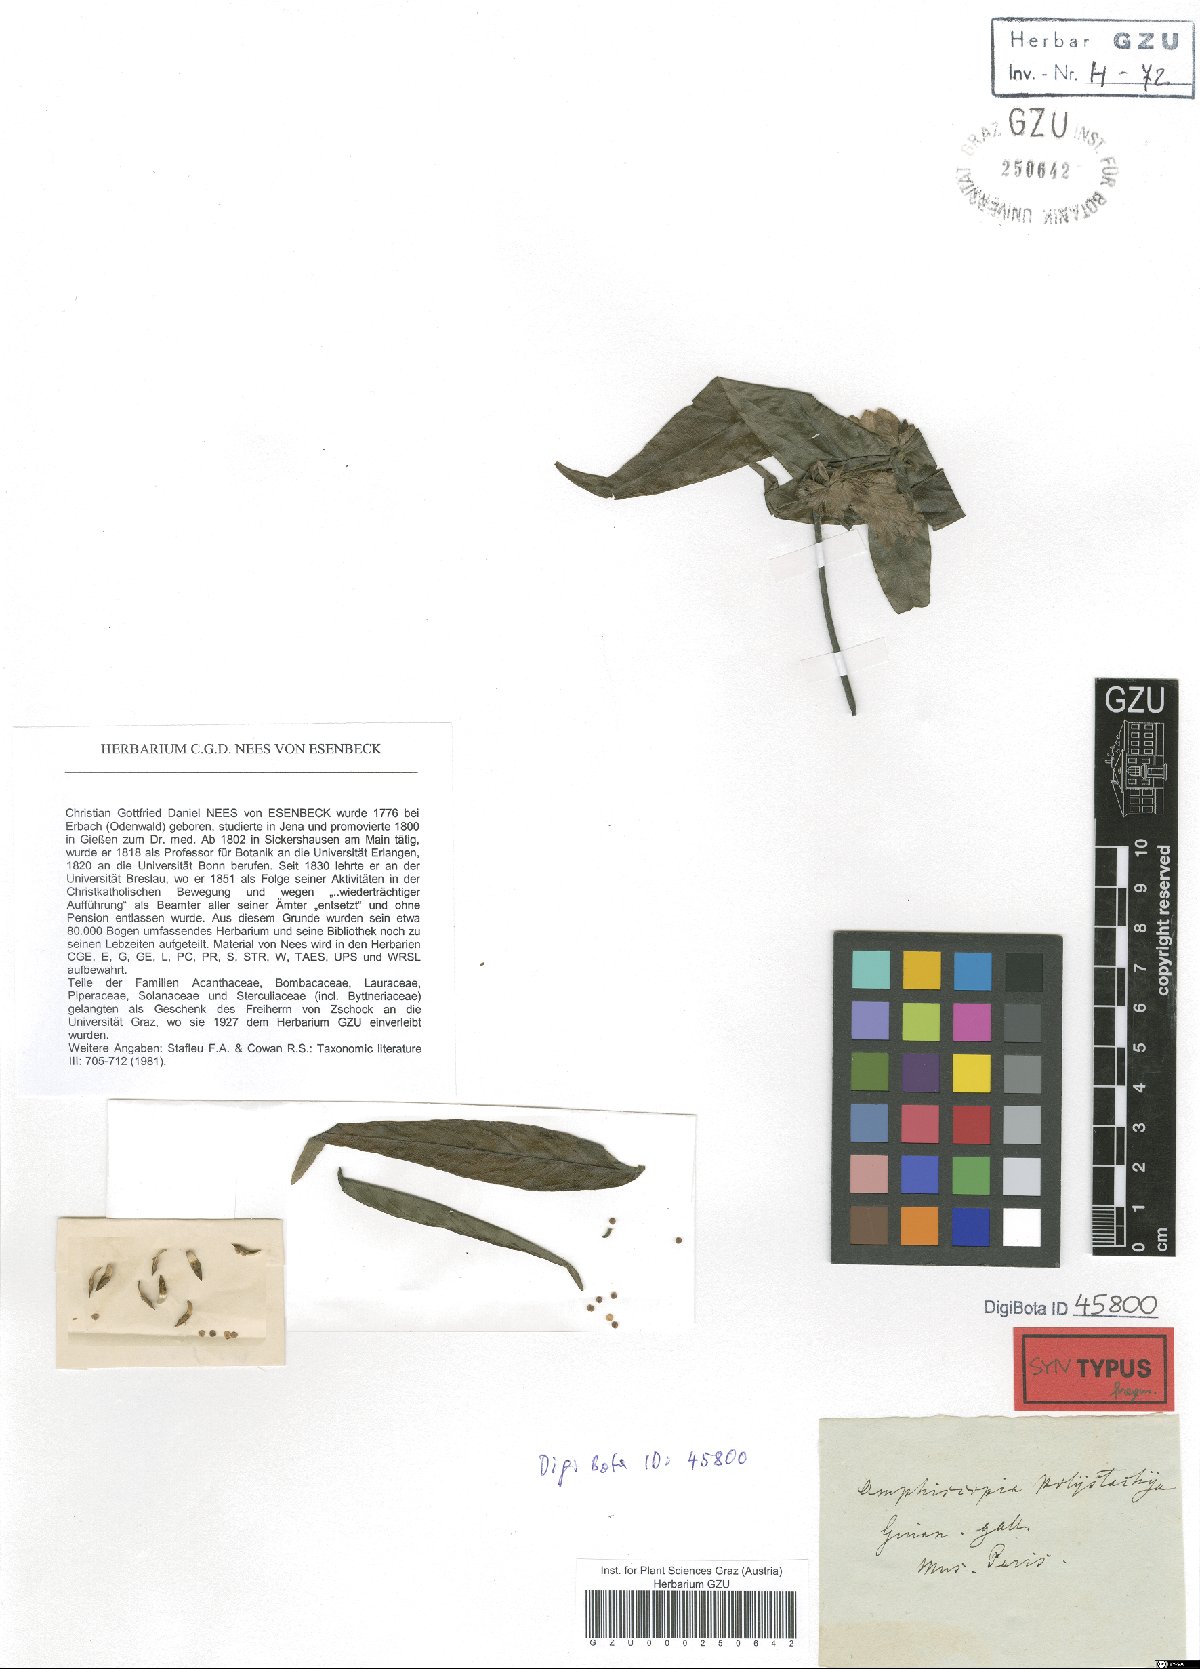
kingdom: Plantae
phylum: Tracheophyta
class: Magnoliopsida
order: Lamiales
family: Acanthaceae
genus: Justicia
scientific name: Justicia polystachya
